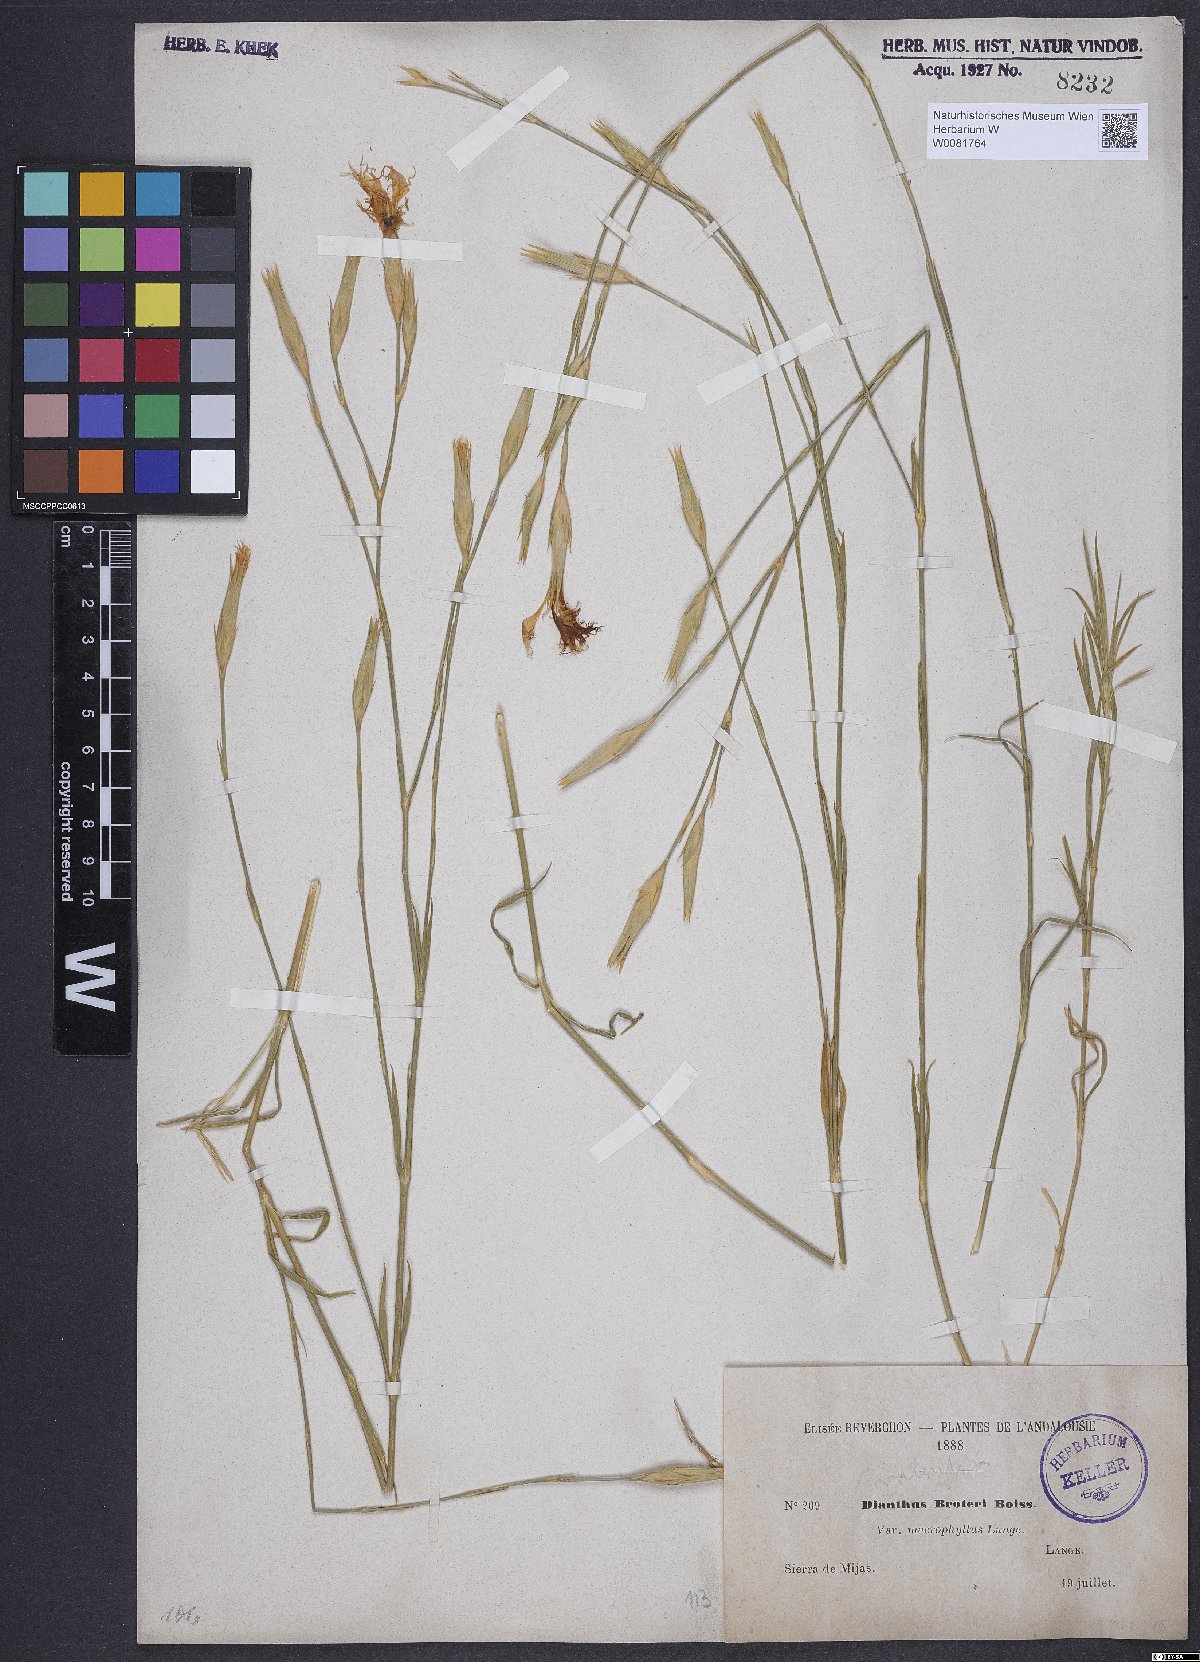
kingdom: Plantae
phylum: Tracheophyta
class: Magnoliopsida
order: Caryophyllales
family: Caryophyllaceae
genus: Dianthus
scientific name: Dianthus broteri
